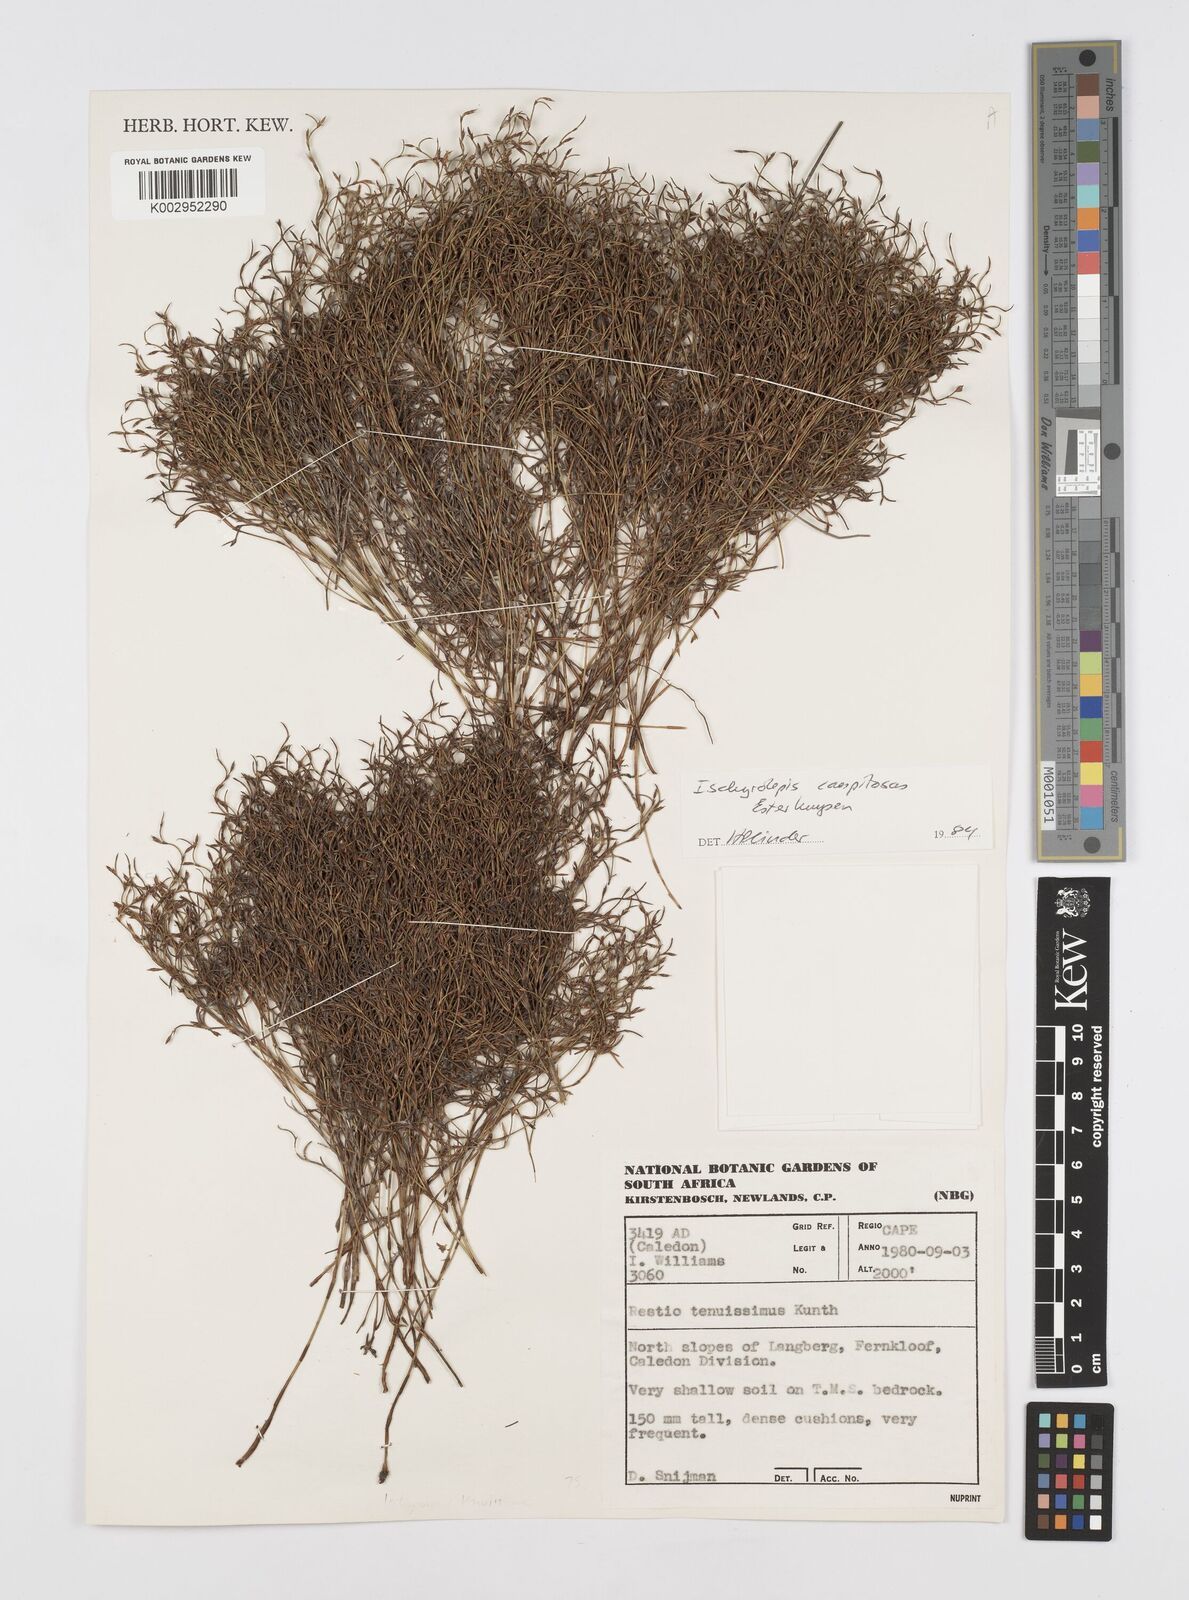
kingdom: Plantae
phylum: Tracheophyta
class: Liliopsida
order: Poales
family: Restionaceae
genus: Restio
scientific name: Restio caespitosus
